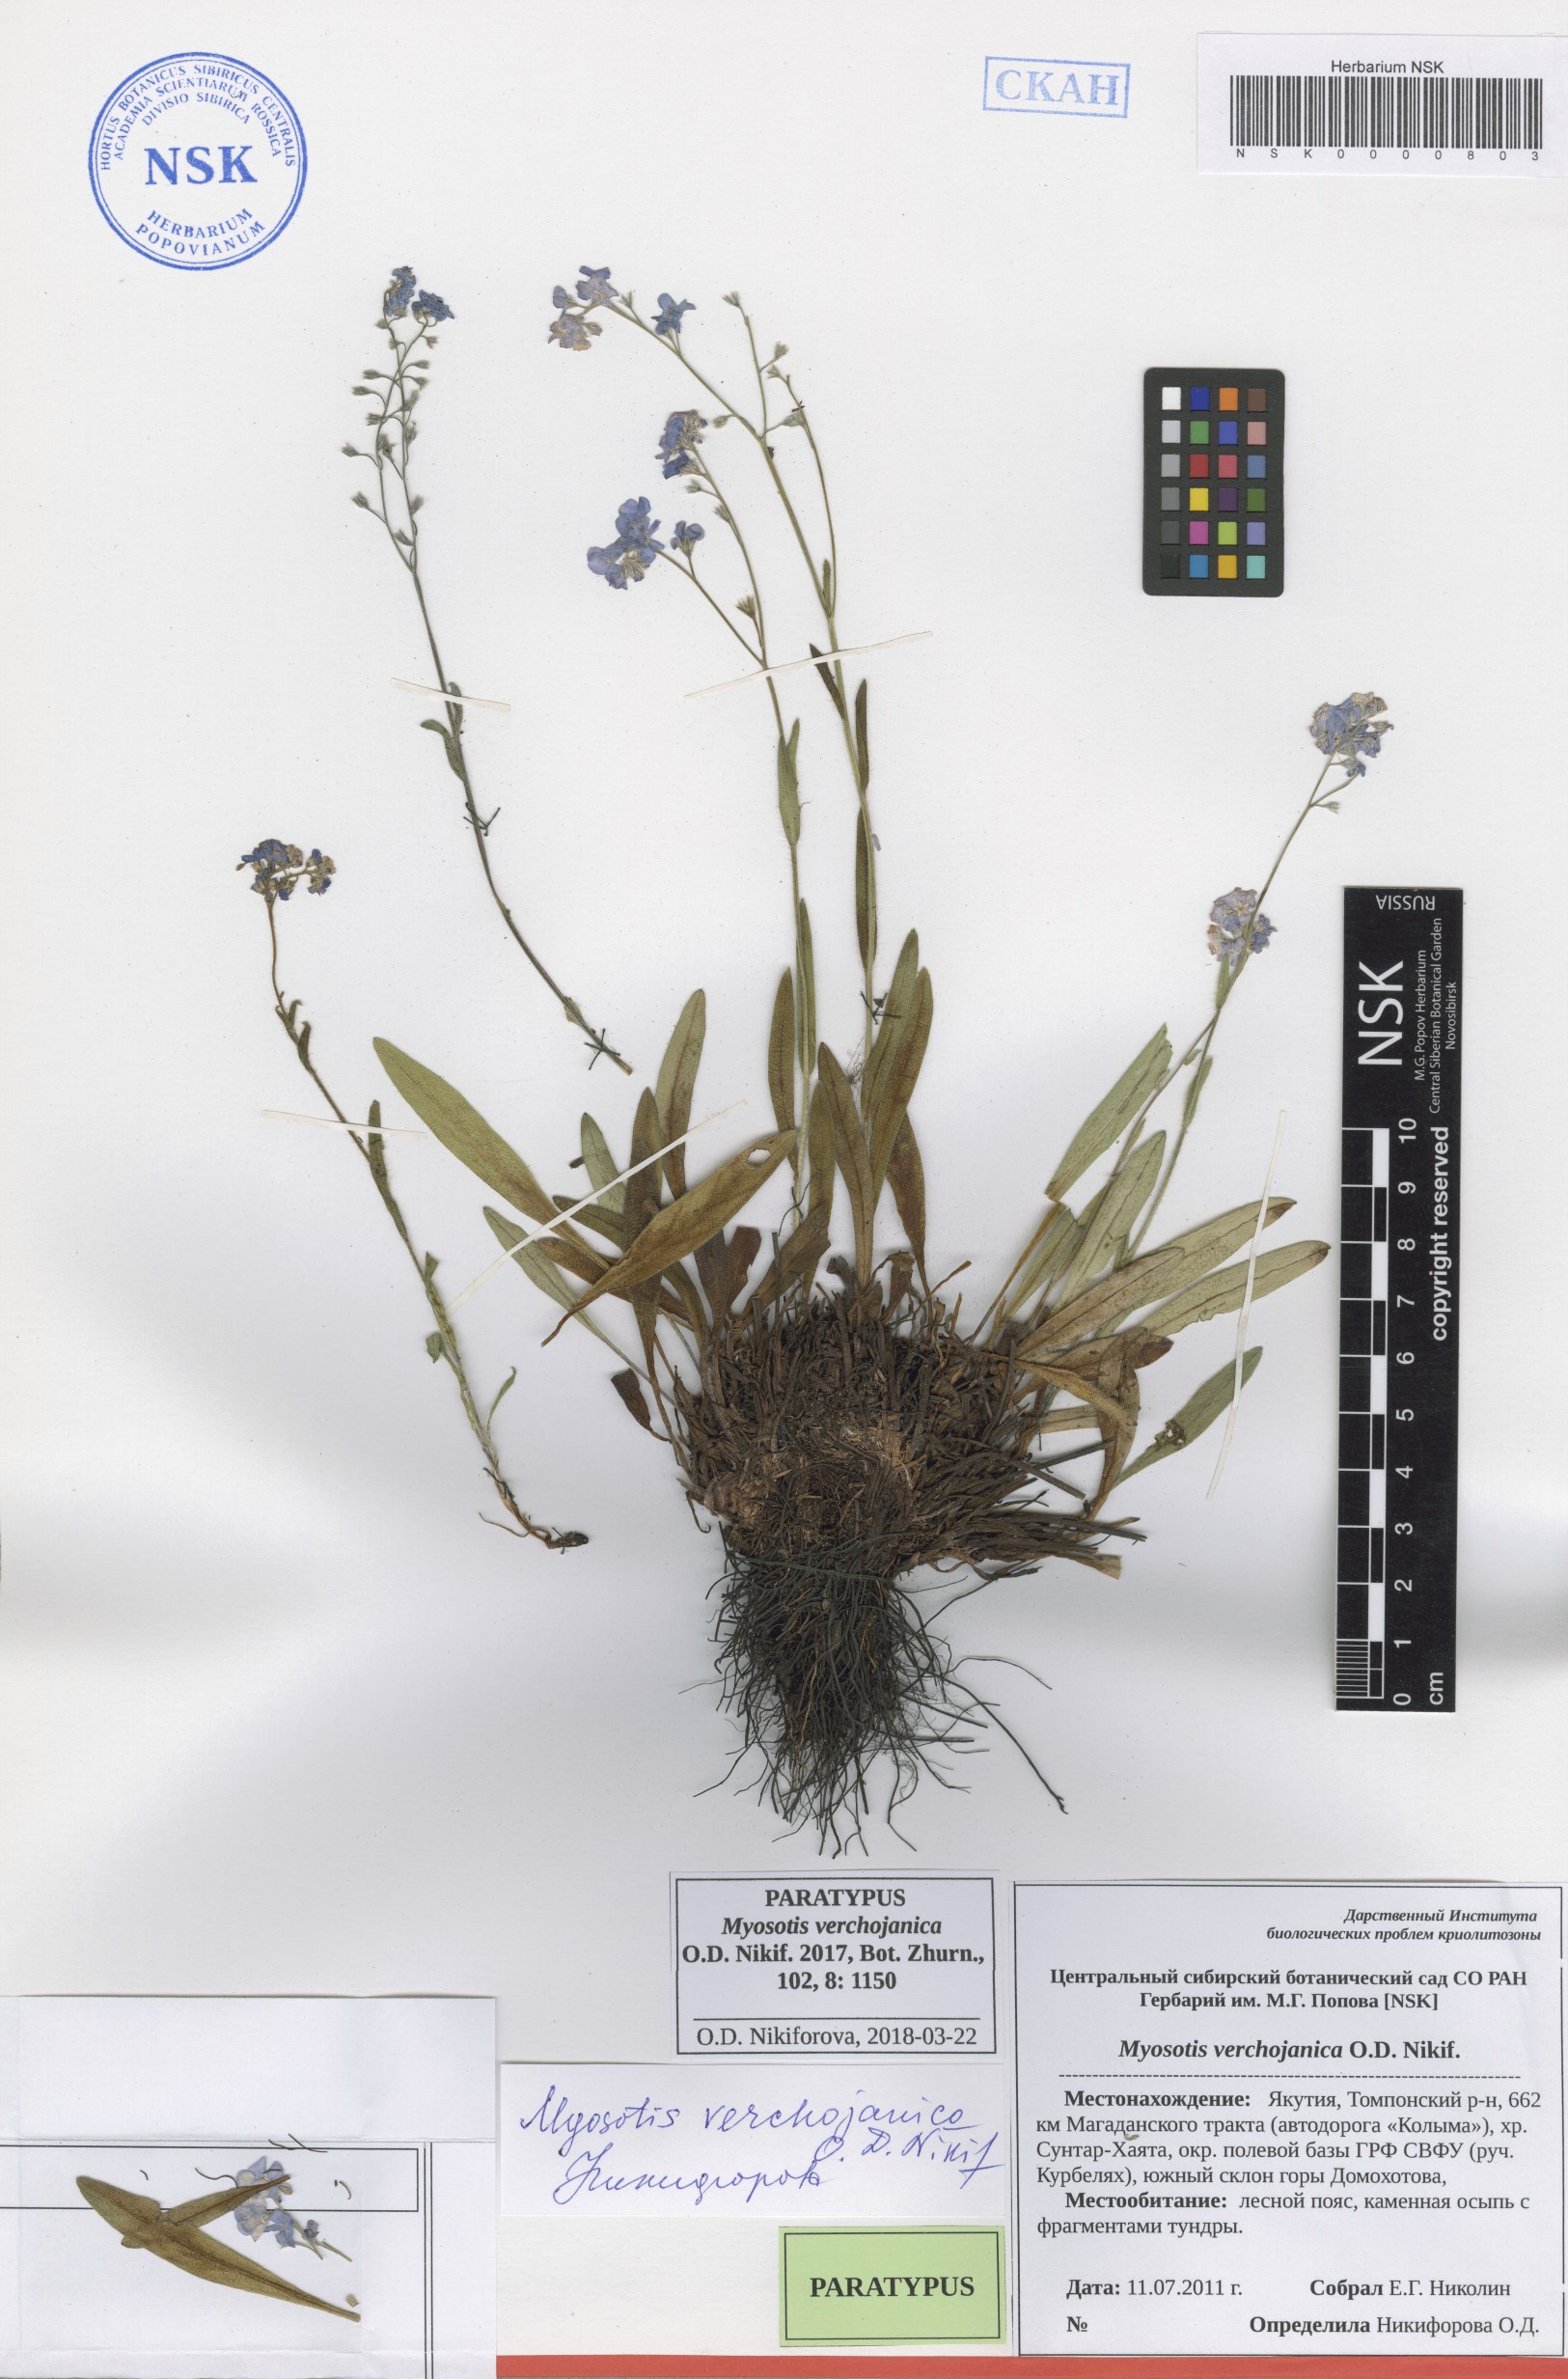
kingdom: Plantae
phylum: Tracheophyta
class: Magnoliopsida
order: Boraginales
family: Boraginaceae
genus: Myosotis
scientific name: Myosotis
